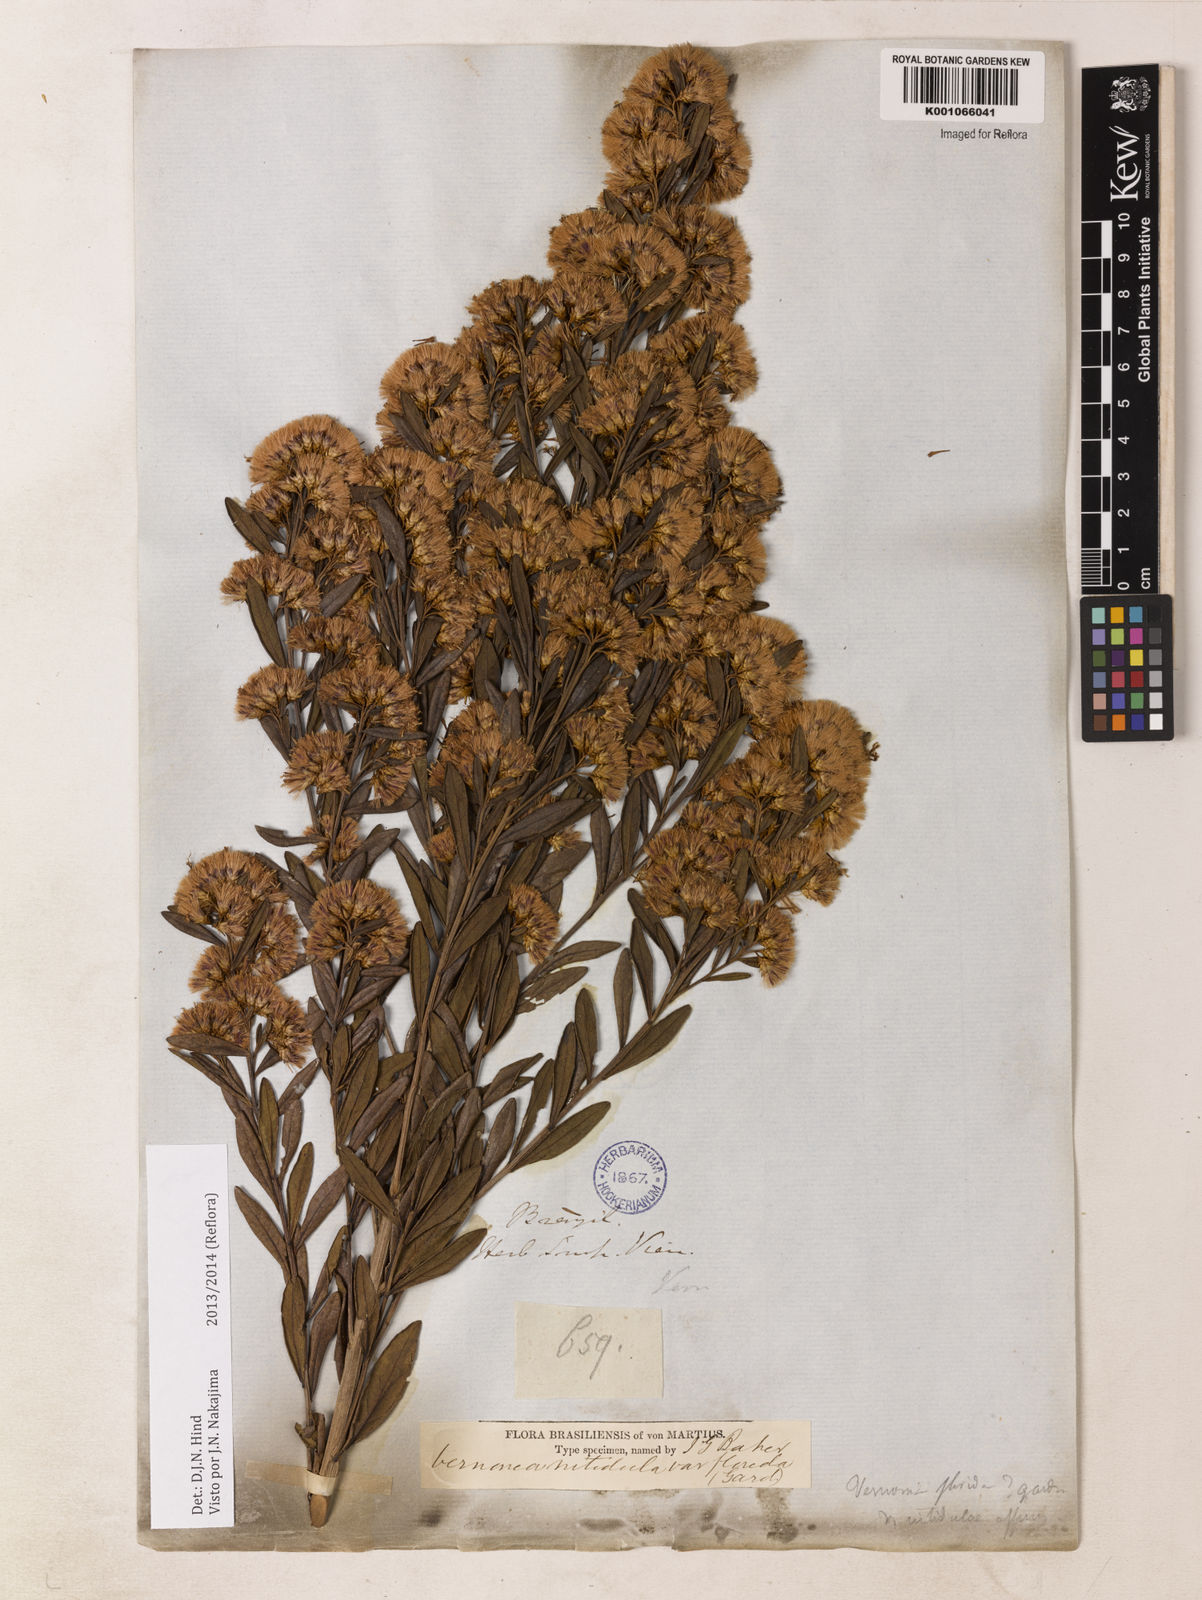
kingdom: Plantae
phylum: Tracheophyta
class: Magnoliopsida
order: Asterales
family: Asteraceae
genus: Vernonanthura
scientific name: Vernonanthura montevidensis
